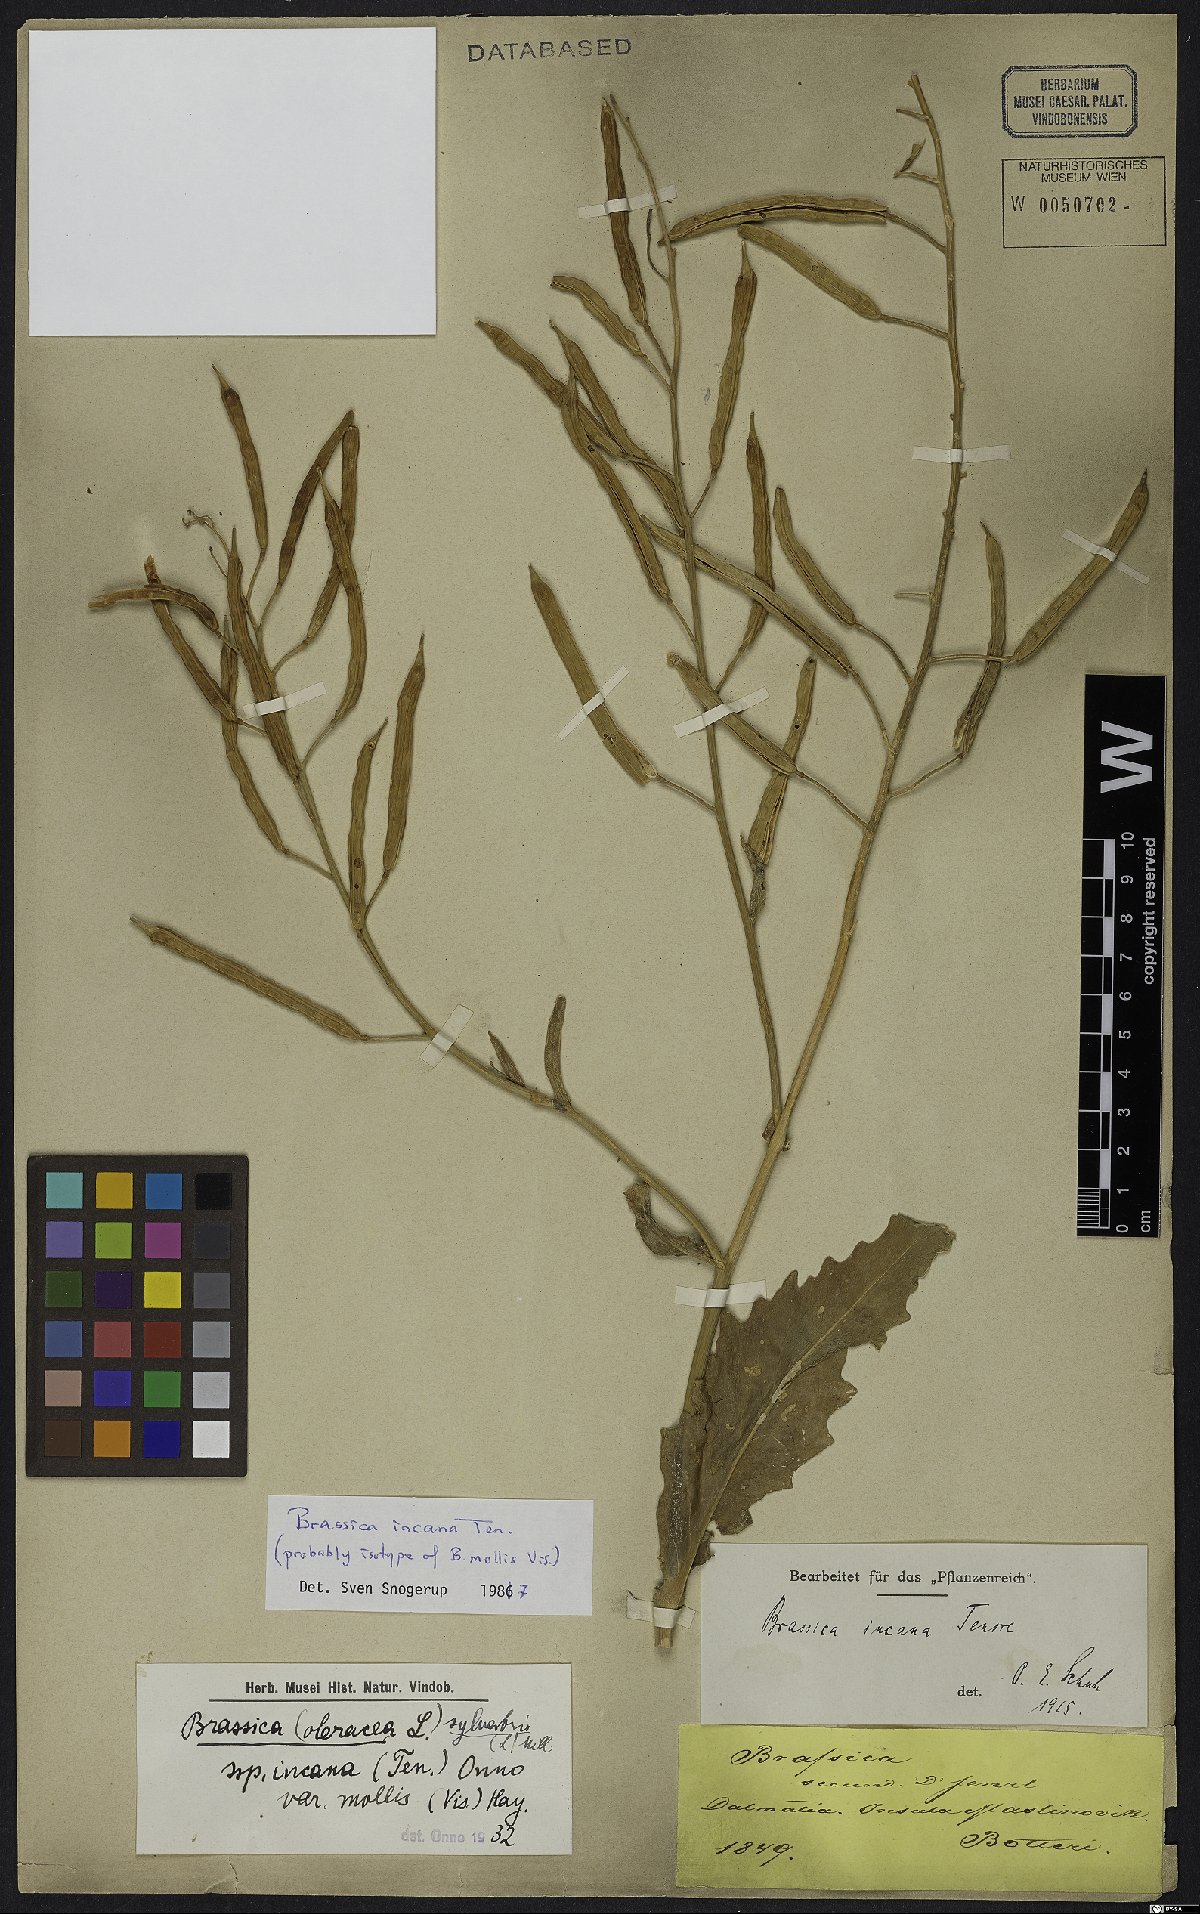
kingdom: Plantae
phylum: Tracheophyta
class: Magnoliopsida
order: Brassicales
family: Brassicaceae
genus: Brassica
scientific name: Brassica incana
